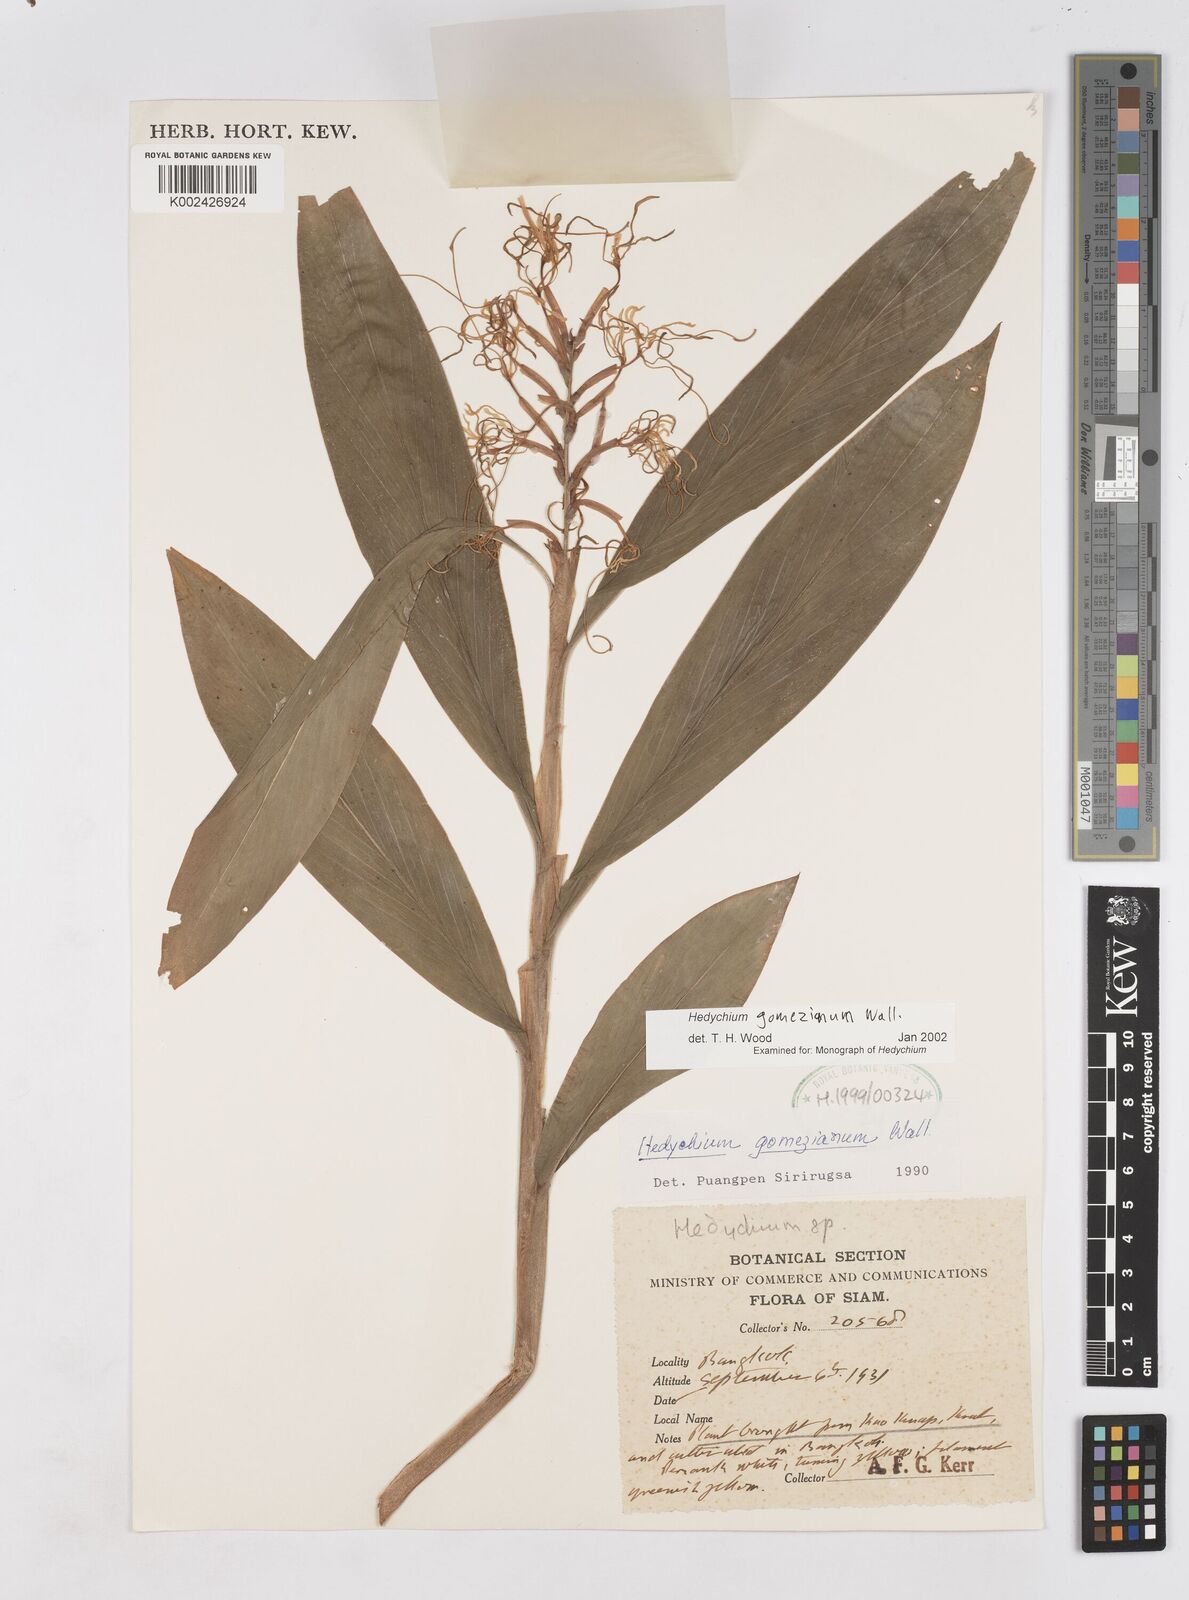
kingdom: Plantae
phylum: Tracheophyta
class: Liliopsida
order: Zingiberales
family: Zingiberaceae
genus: Hedychium
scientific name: Hedychium gomezianum
